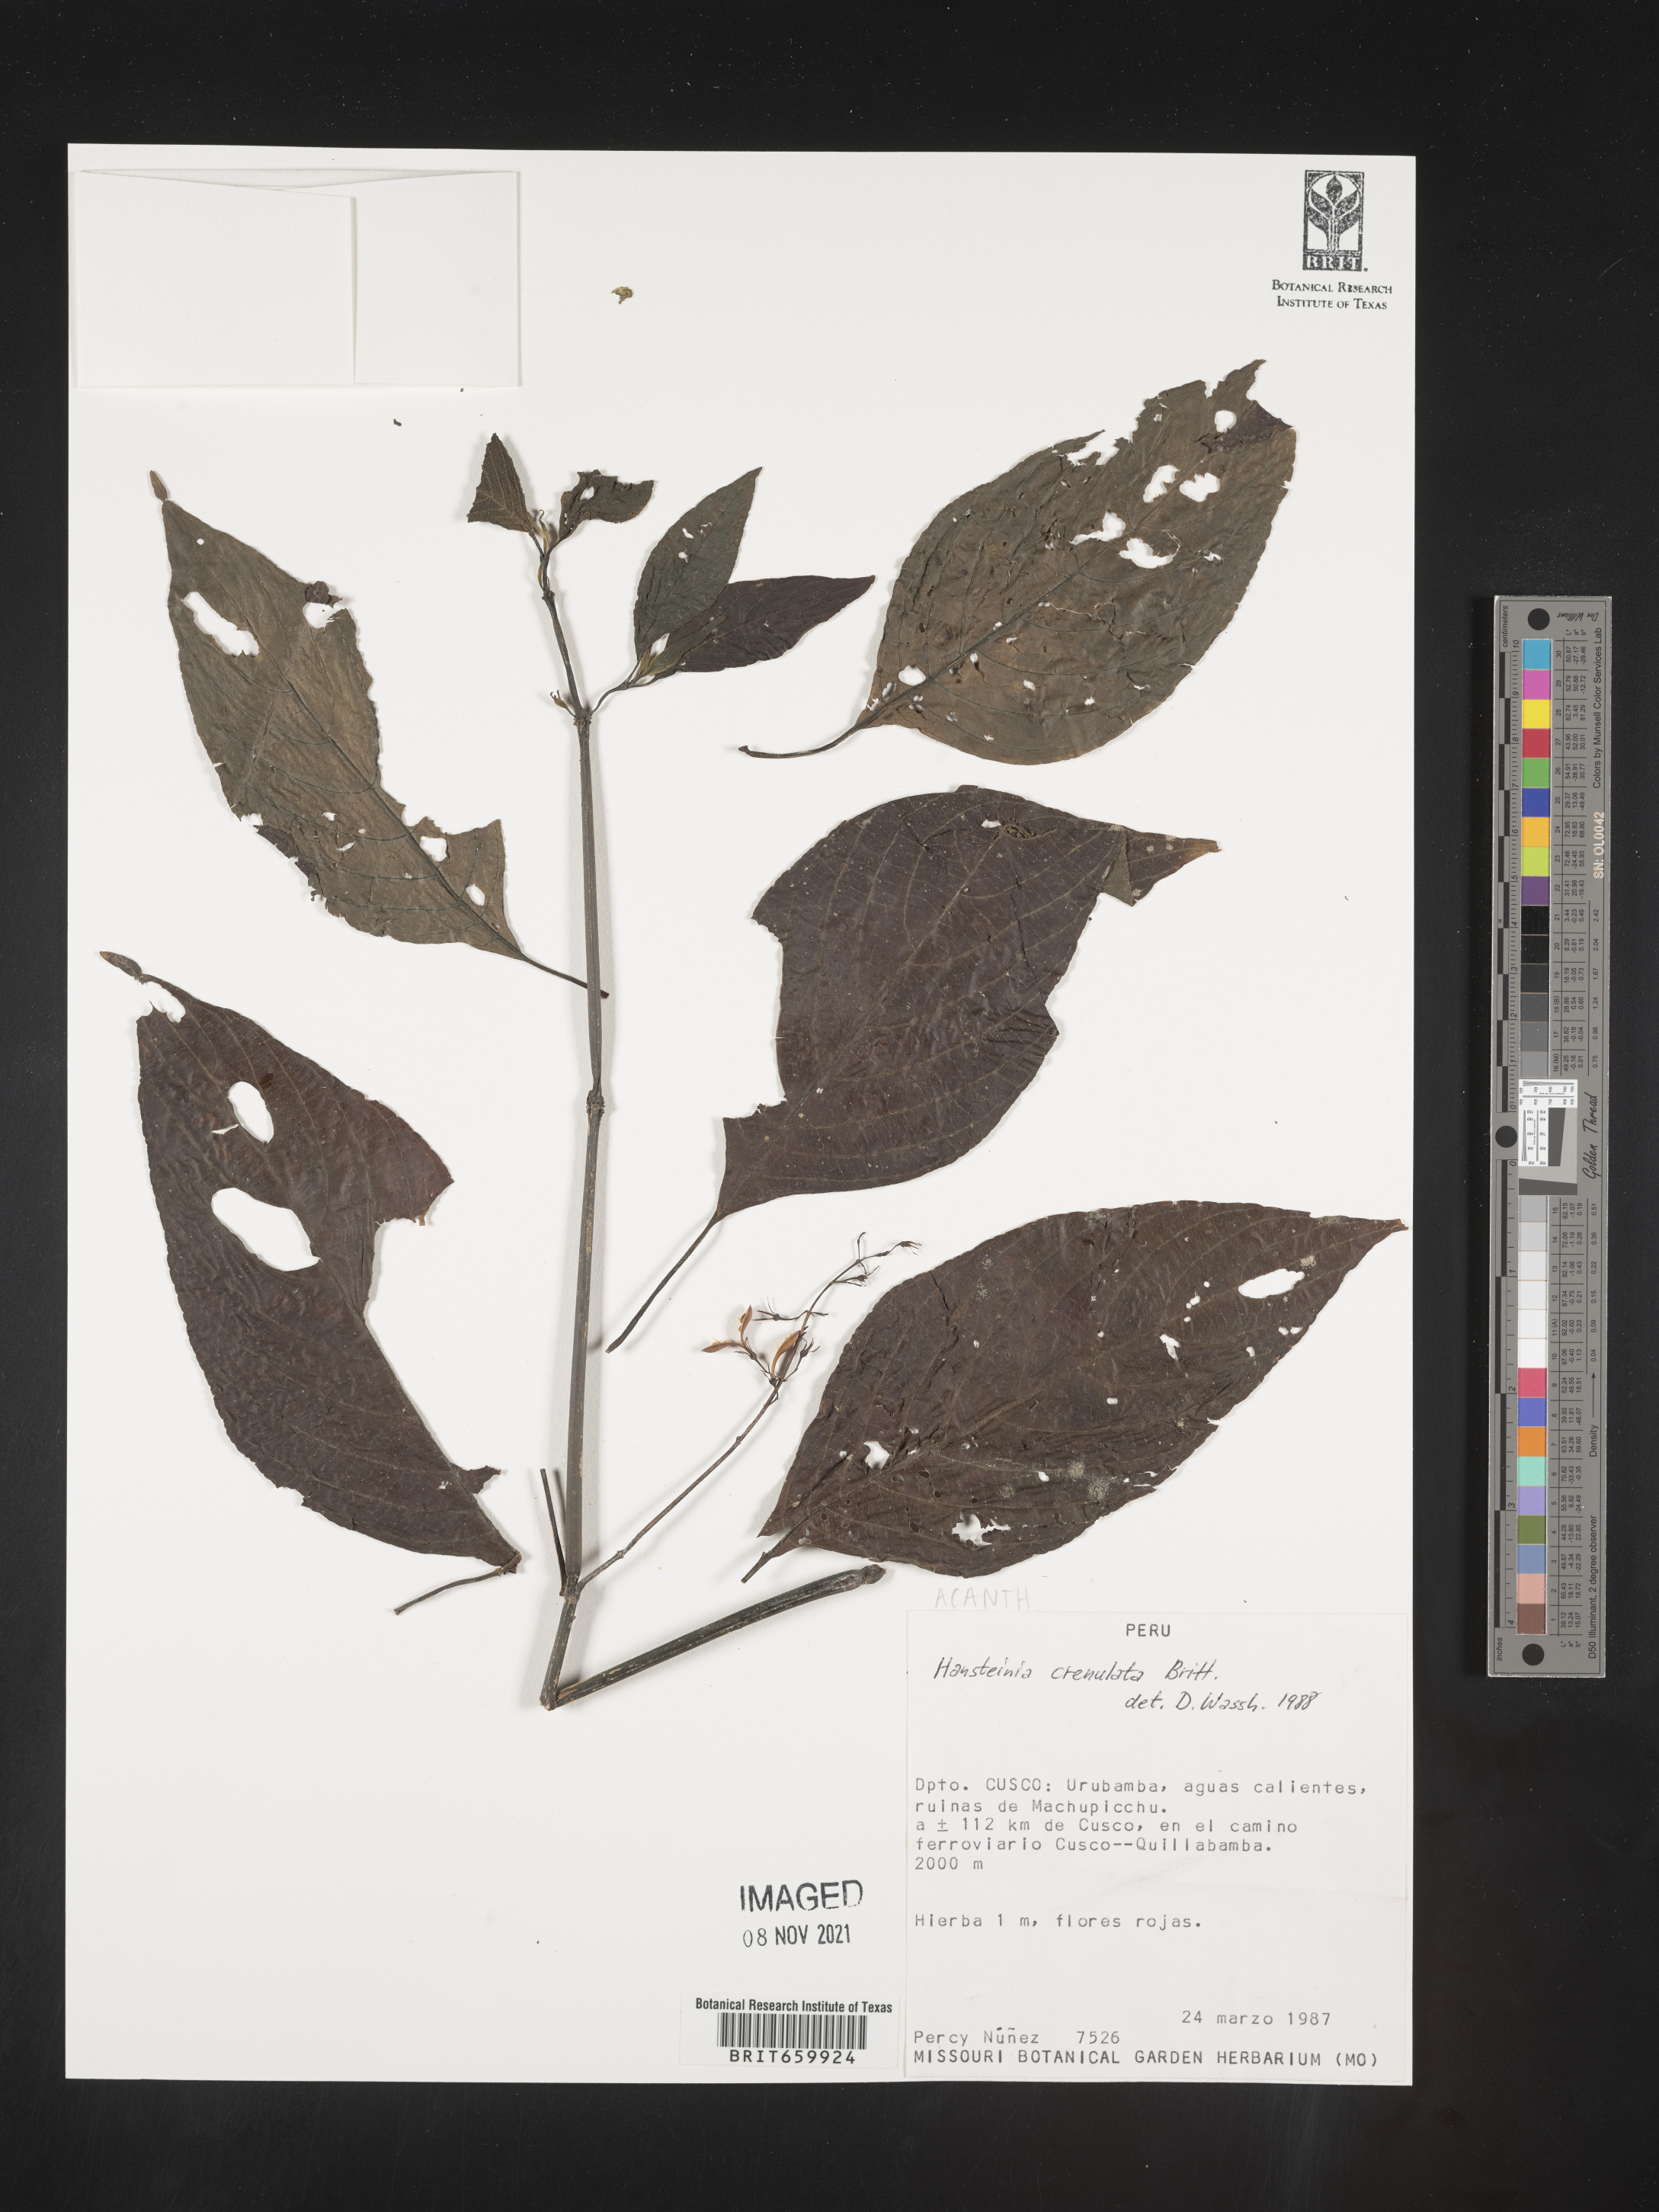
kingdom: Plantae
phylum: Tracheophyta
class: Magnoliopsida
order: Lamiales
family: Acanthaceae
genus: Stenostephanus
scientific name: Stenostephanus
